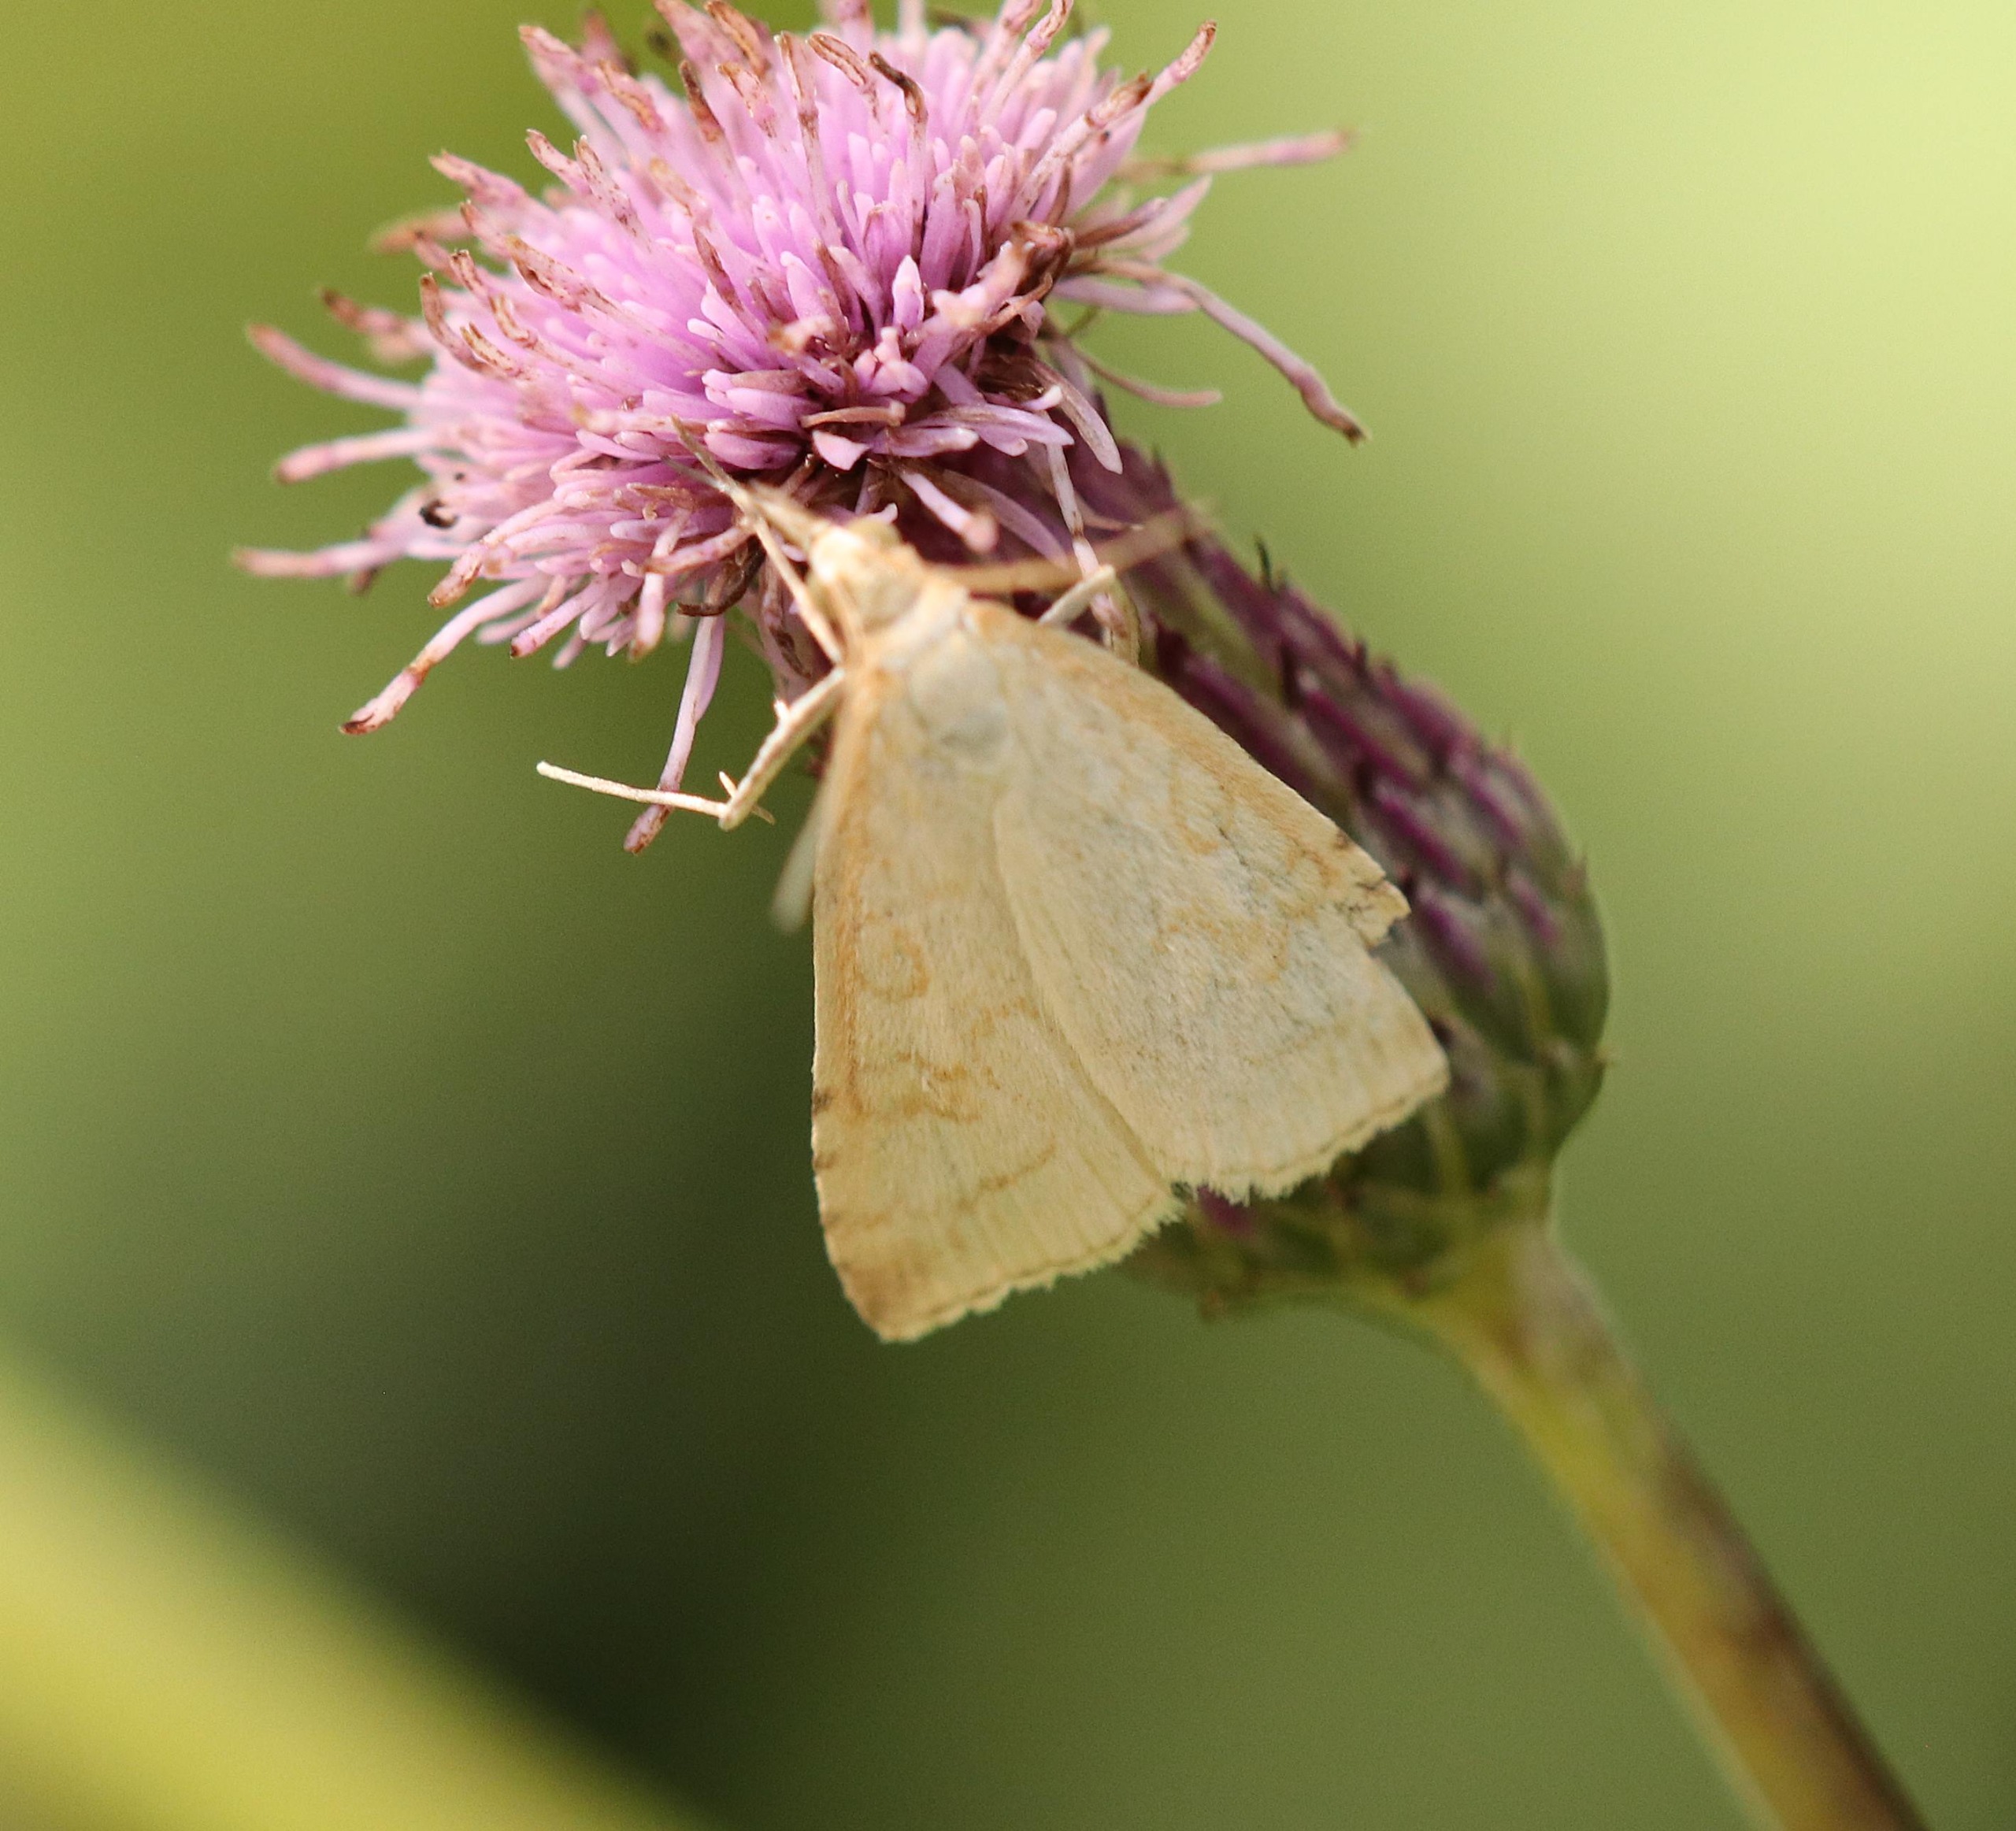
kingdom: Animalia
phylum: Arthropoda
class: Insecta
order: Lepidoptera
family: Crambidae
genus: Udea
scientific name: Udea lutealis
